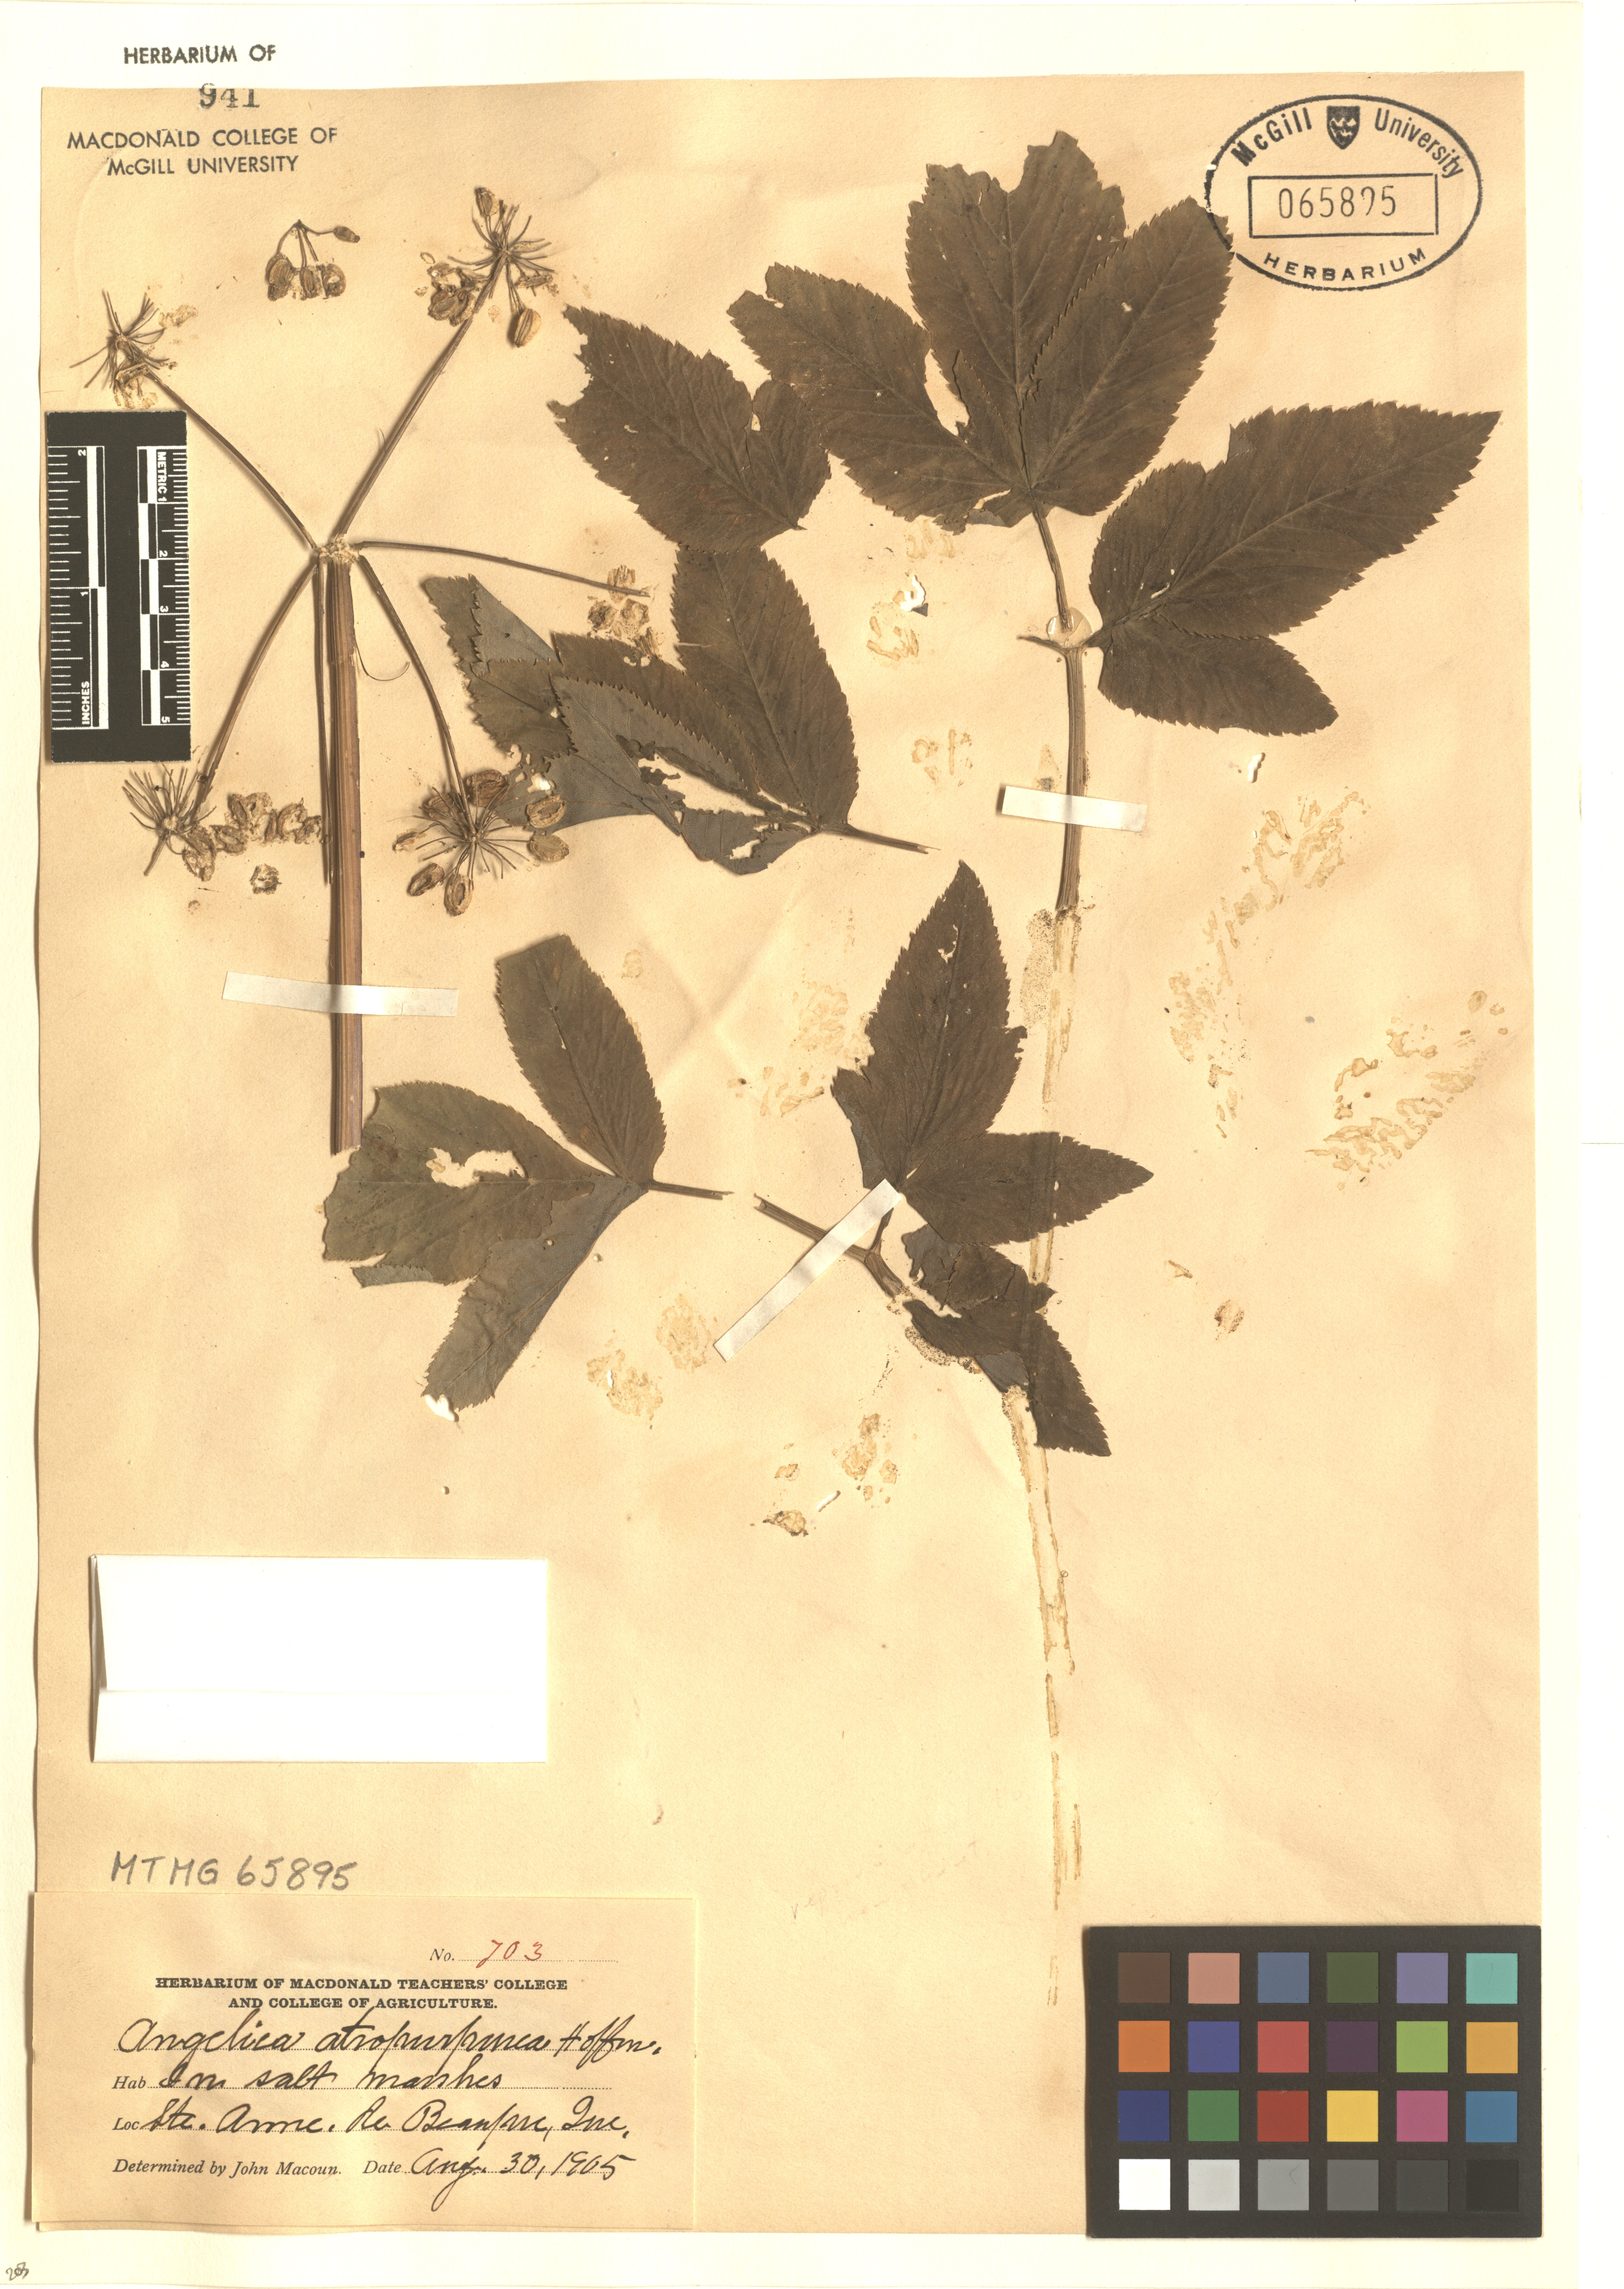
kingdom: Plantae
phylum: Tracheophyta
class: Magnoliopsida
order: Apiales
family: Apiaceae
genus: Angelica
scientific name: Angelica atropurpurea
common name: Great angelica
